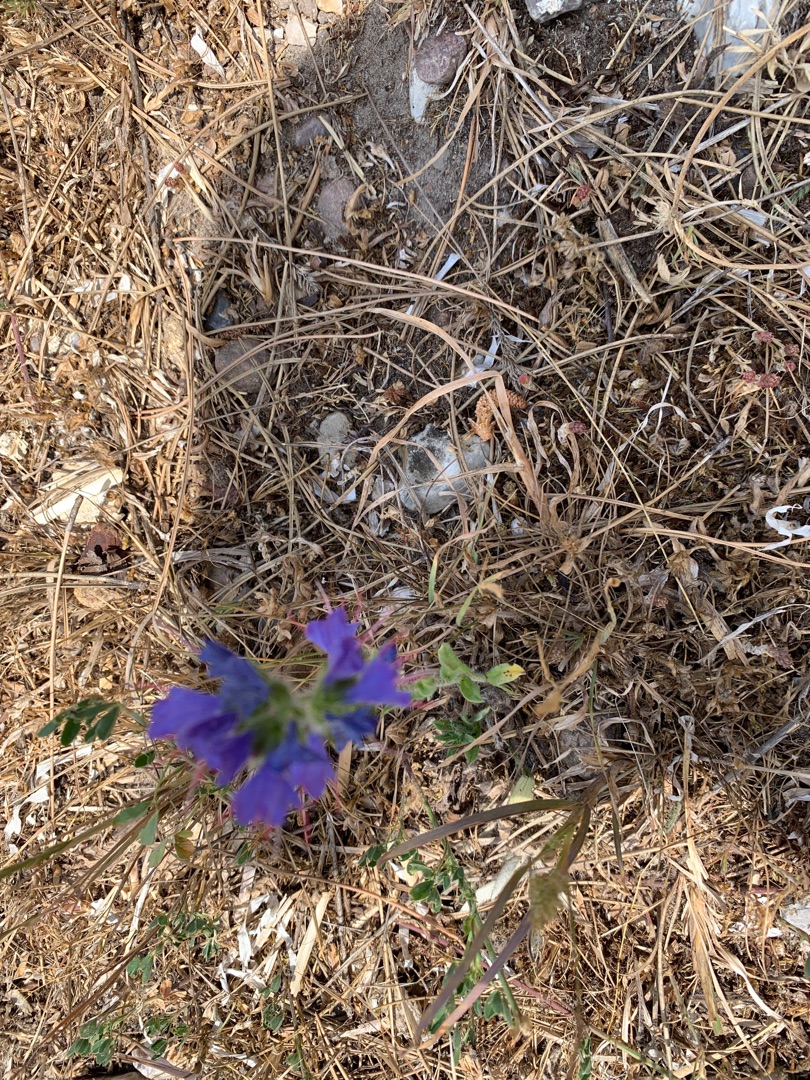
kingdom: Plantae
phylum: Tracheophyta
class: Magnoliopsida
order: Boraginales
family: Boraginaceae
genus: Echium
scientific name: Echium vulgare
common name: Slangehoved
